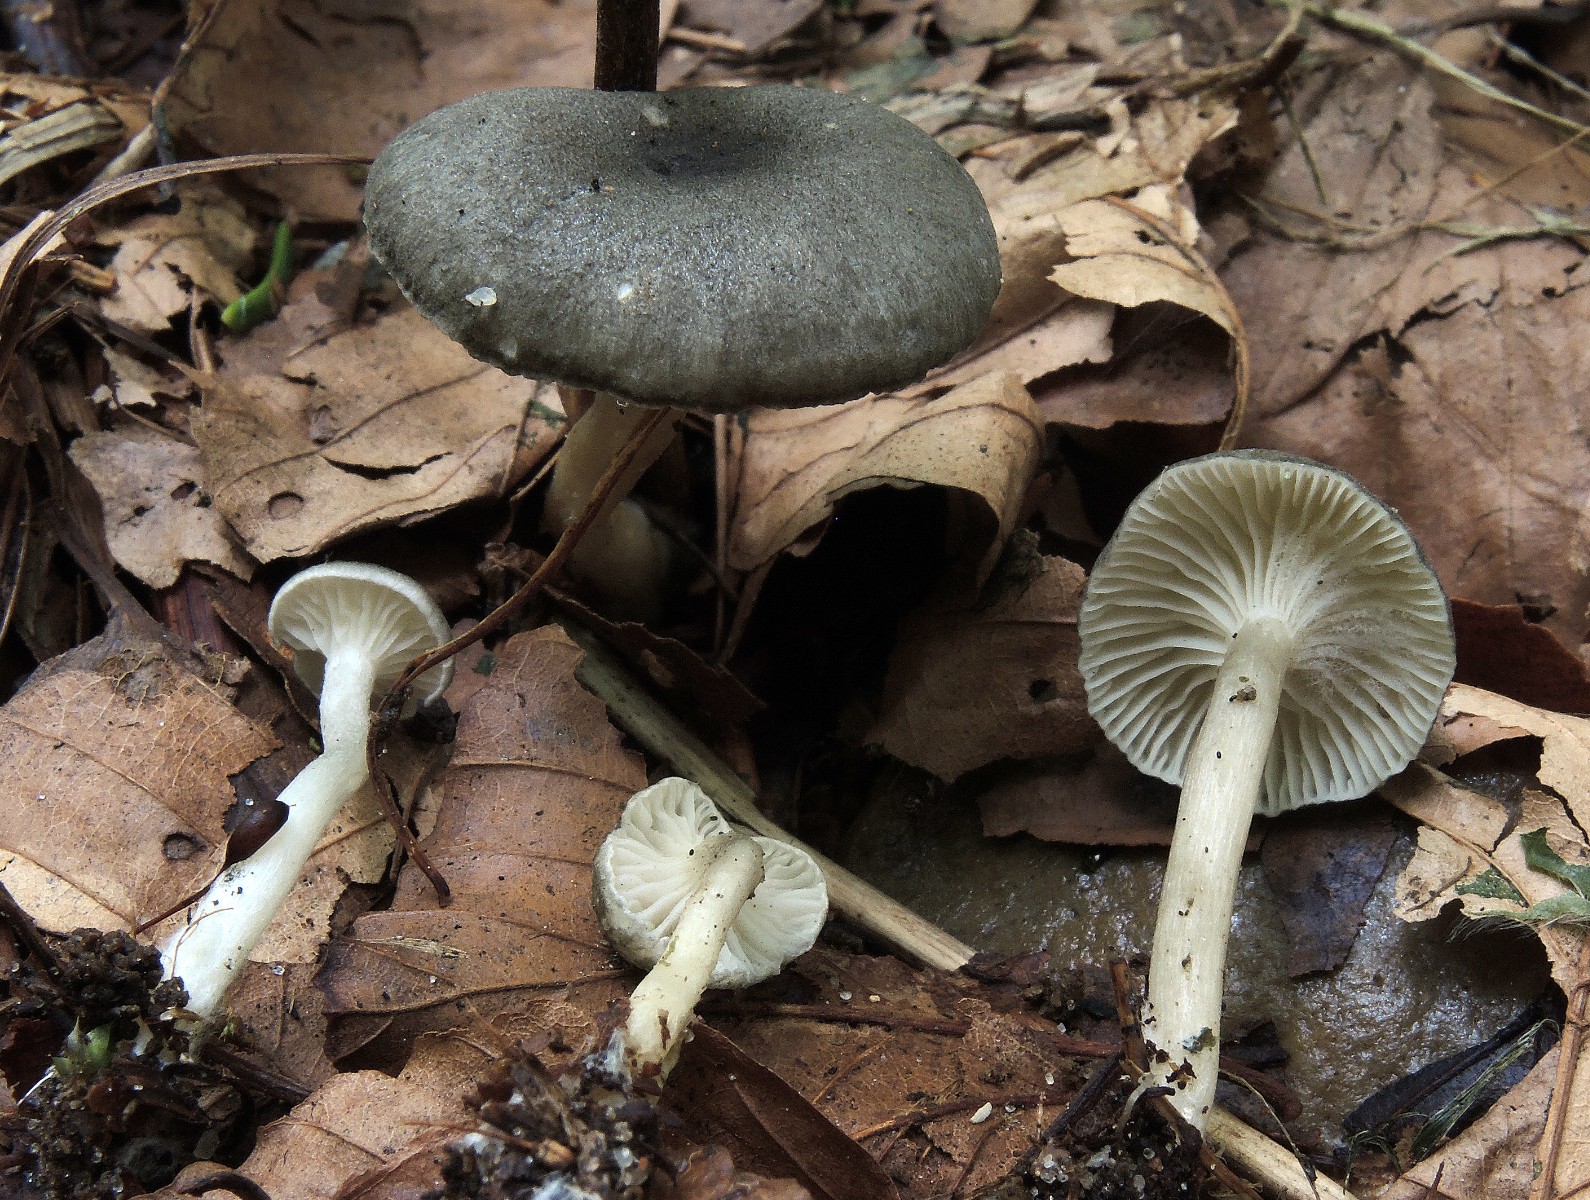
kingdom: Fungi
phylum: Basidiomycota
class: Agaricomycetes
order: Agaricales
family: Hygrophoraceae
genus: Spodocybe
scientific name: Spodocybe trulliformis
